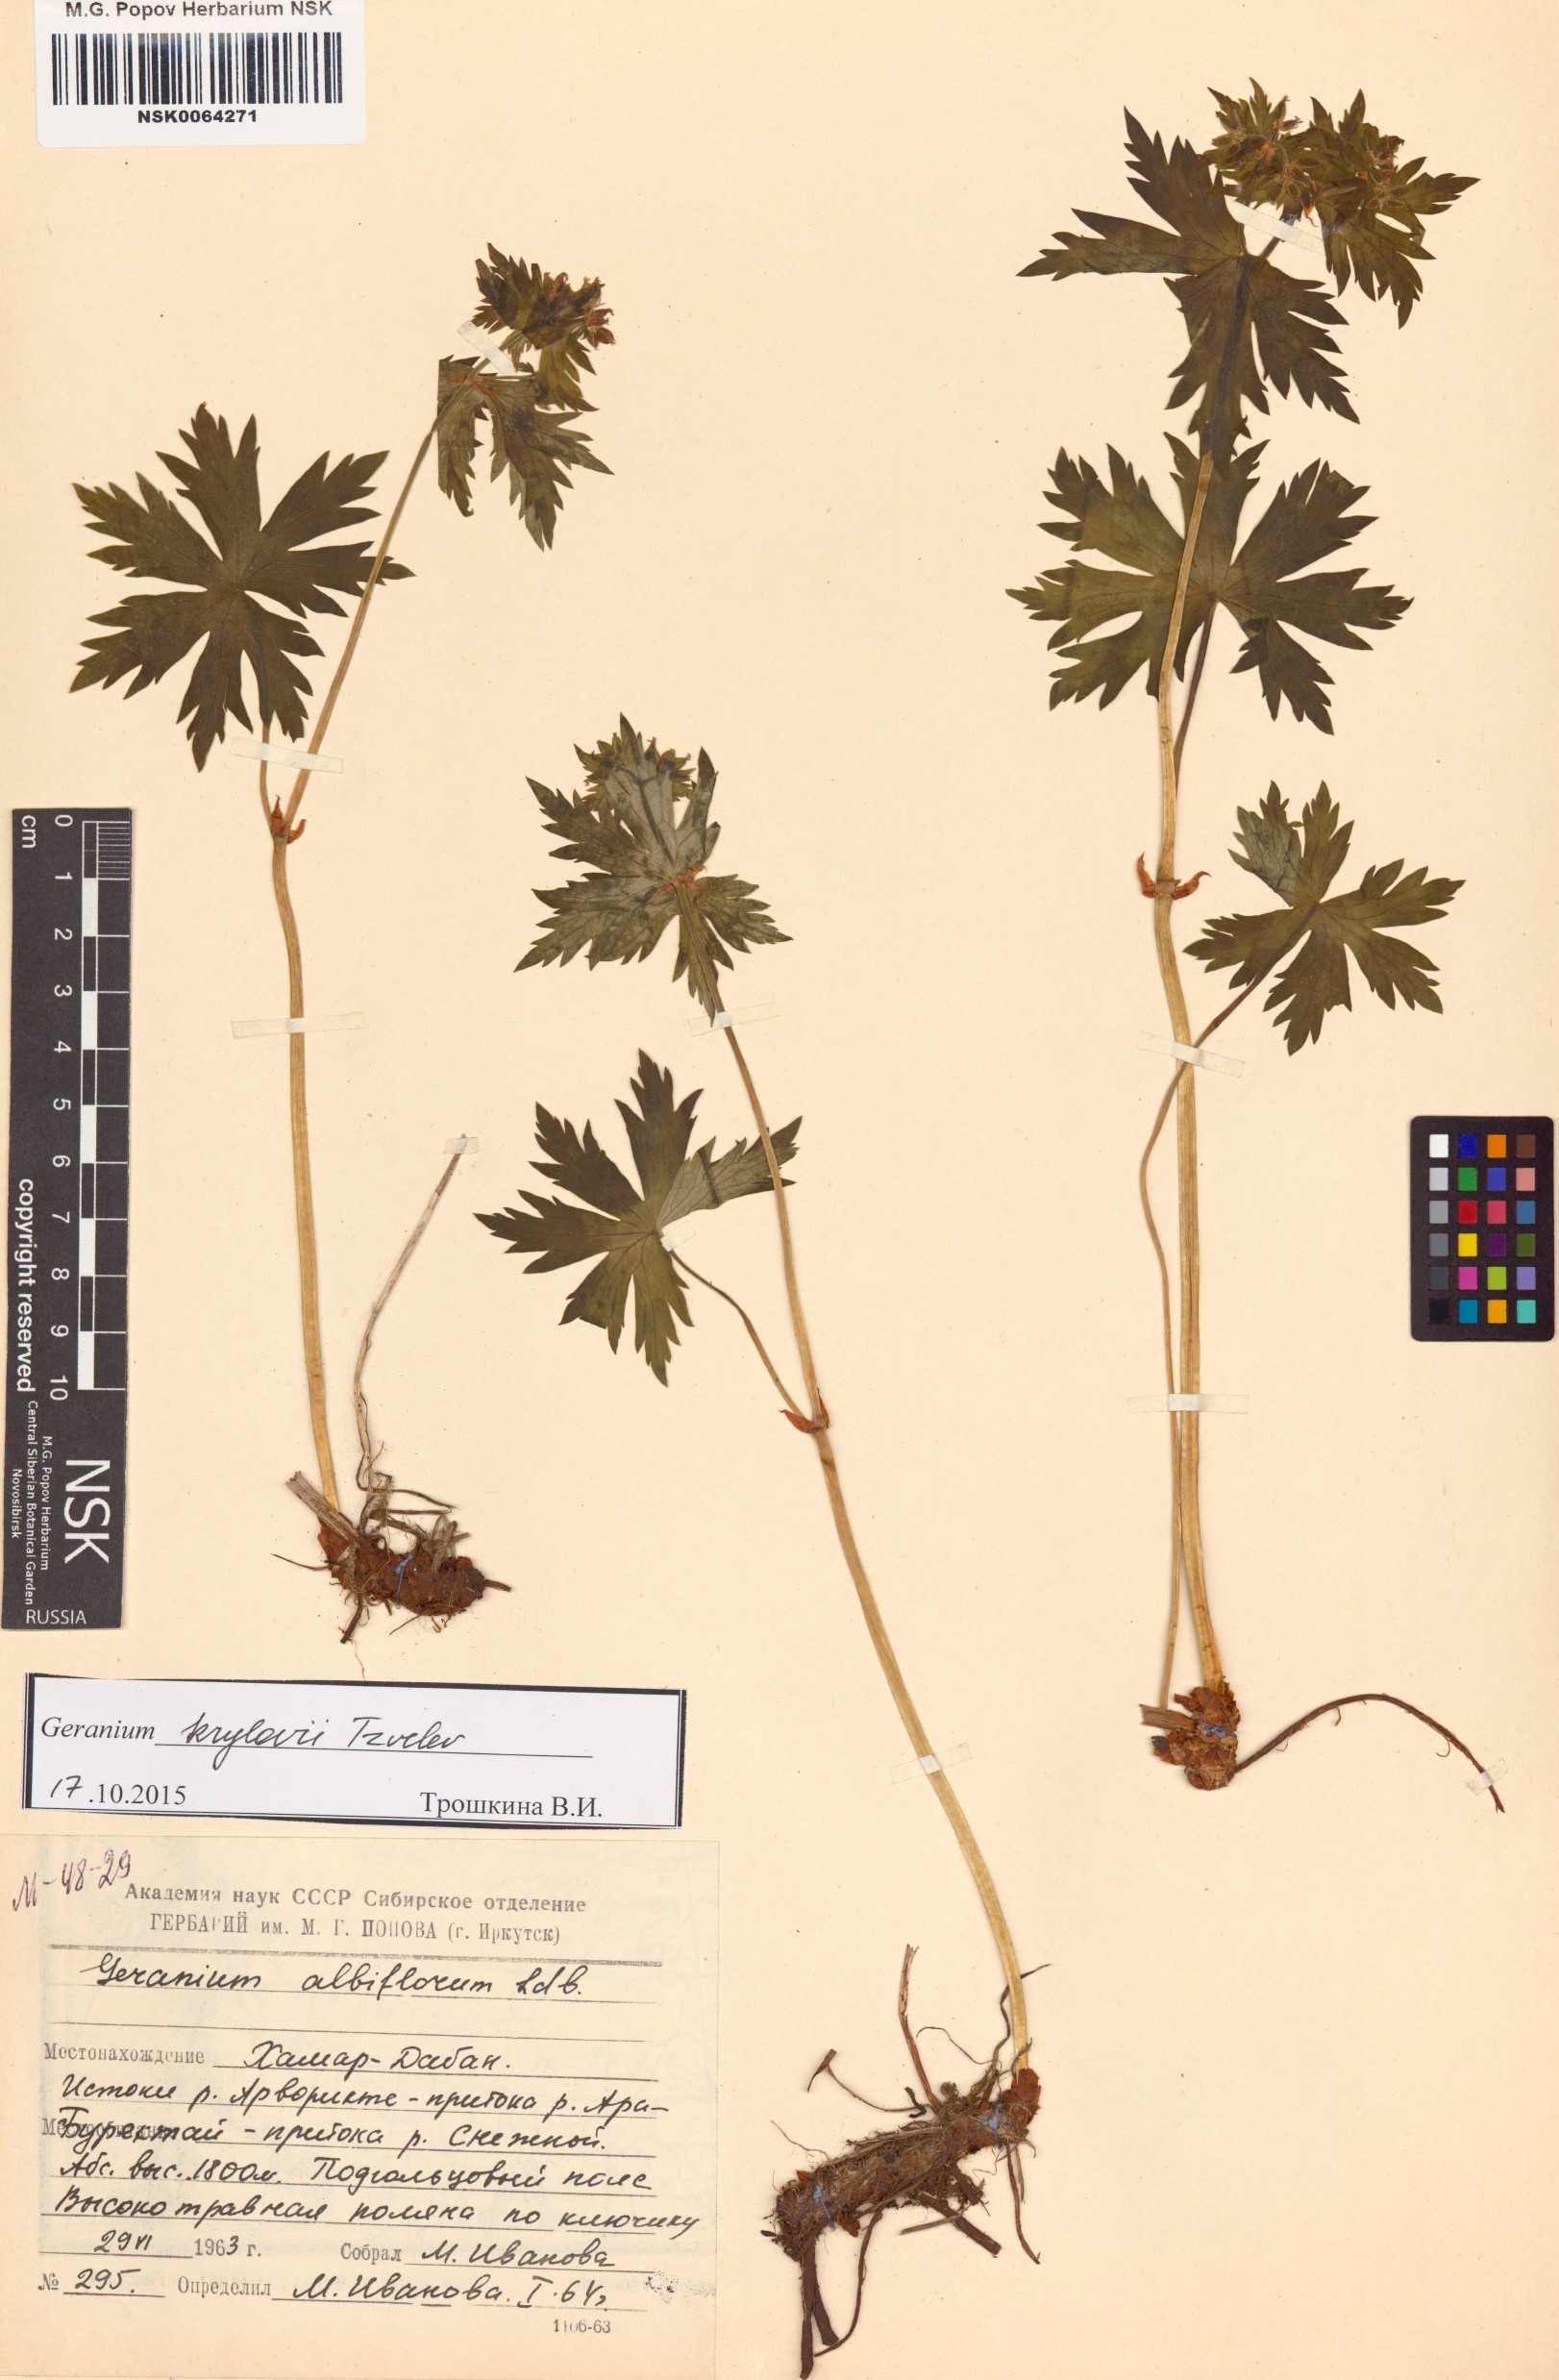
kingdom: Plantae
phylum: Tracheophyta
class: Magnoliopsida
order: Geraniales
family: Geraniaceae
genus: Geranium
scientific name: Geranium sylvaticum
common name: Wood crane's-bill
